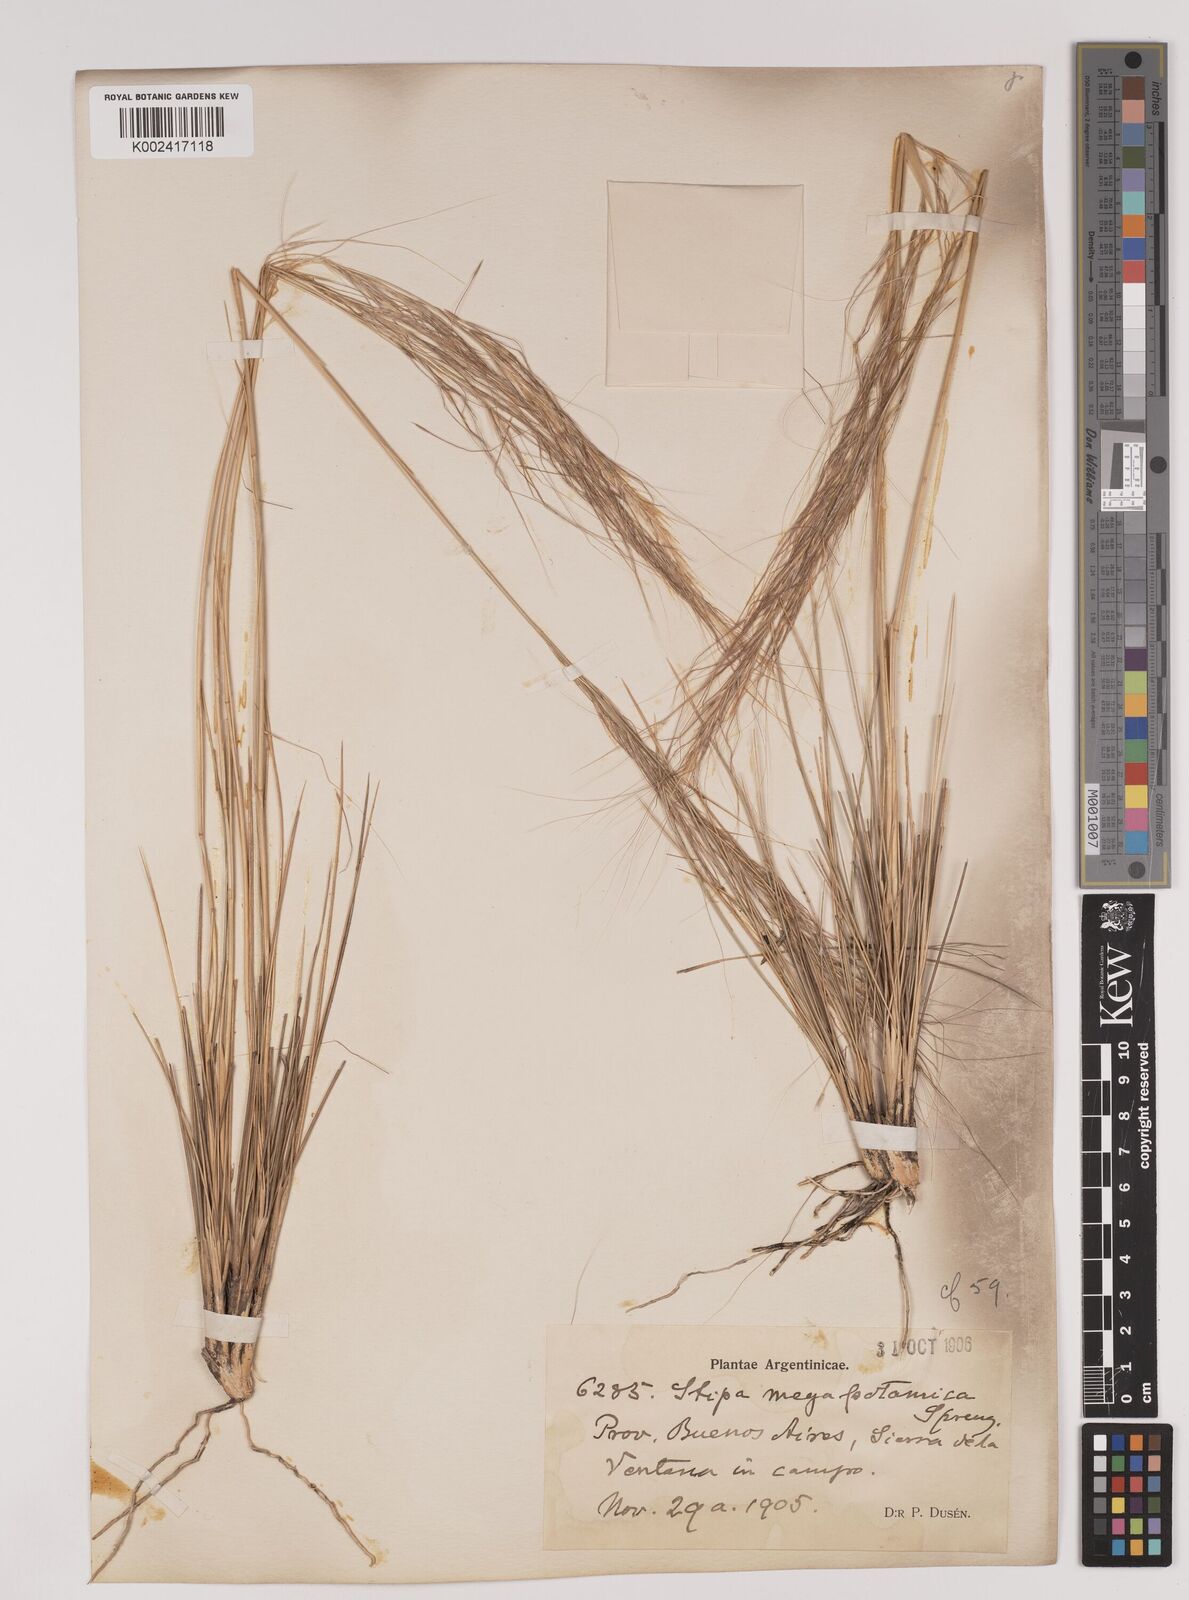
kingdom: Plantae
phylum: Tracheophyta
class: Liliopsida
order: Poales
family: Poaceae
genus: Stipa
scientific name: Stipa
